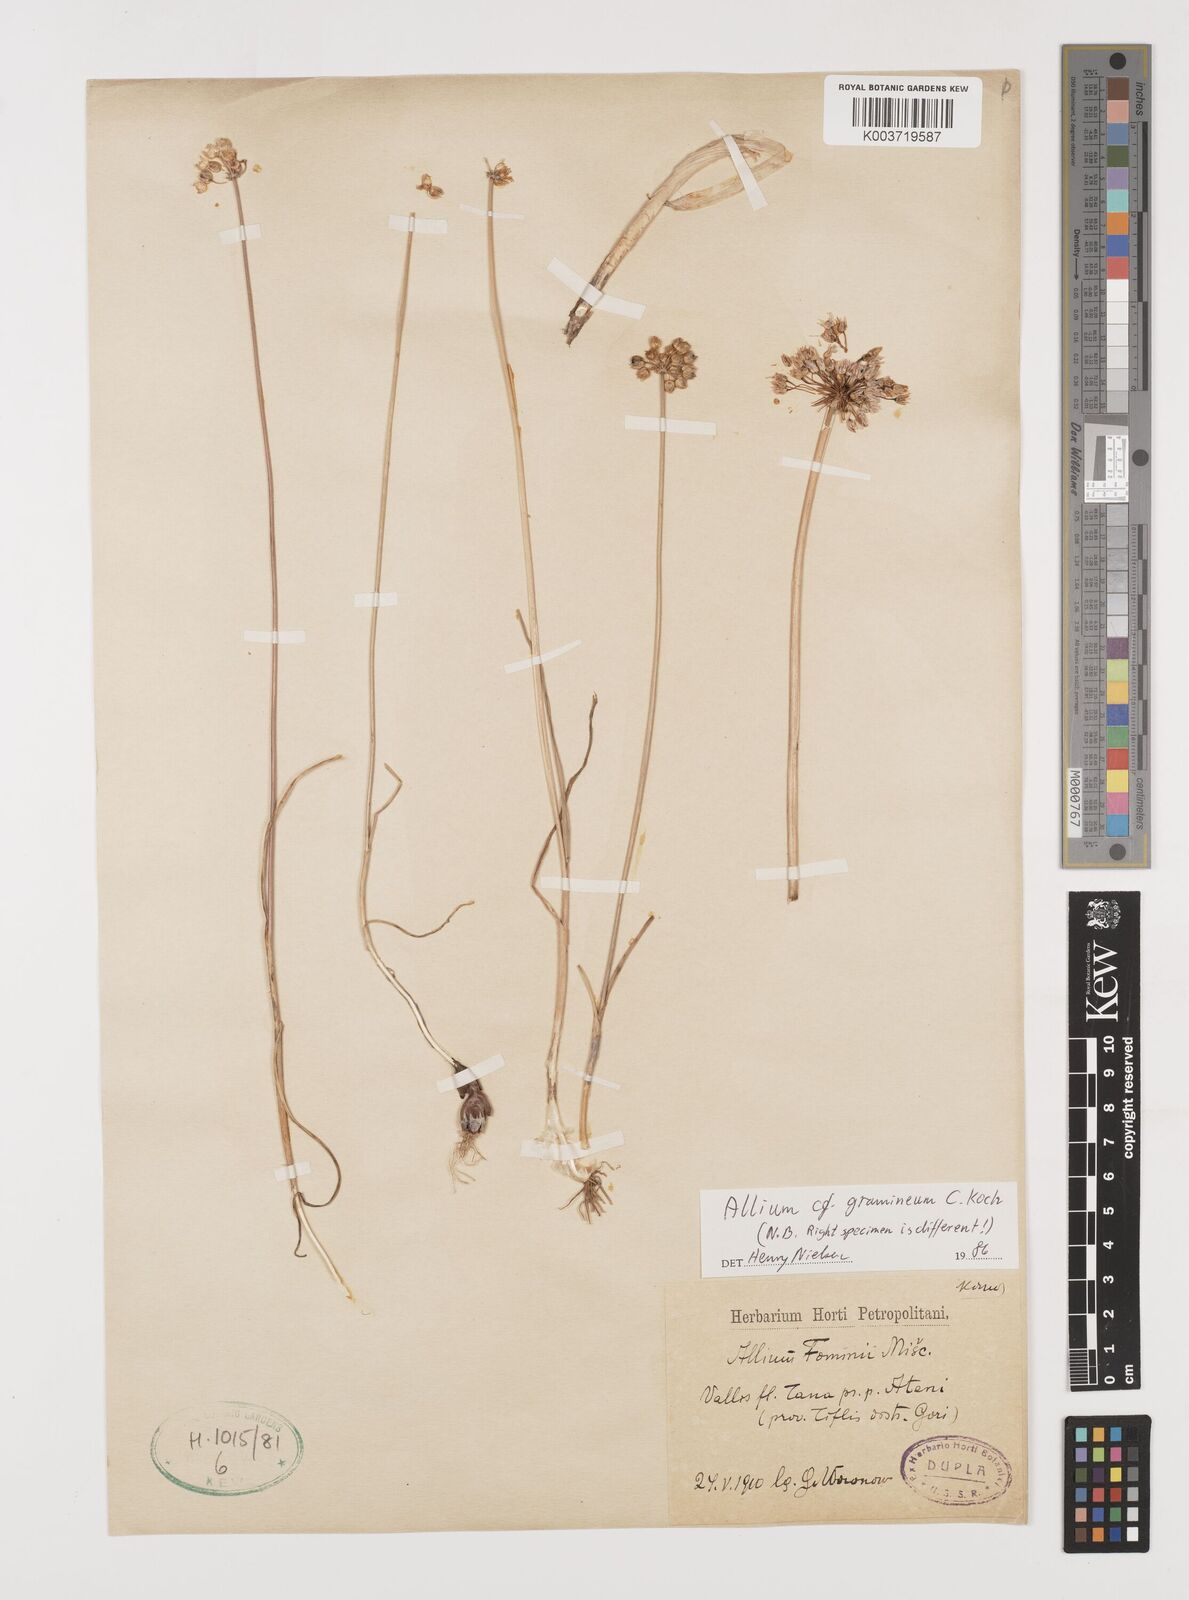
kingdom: Plantae
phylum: Tracheophyta
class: Liliopsida
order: Asparagales
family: Amaryllidaceae
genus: Allium
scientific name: Allium gramineum
